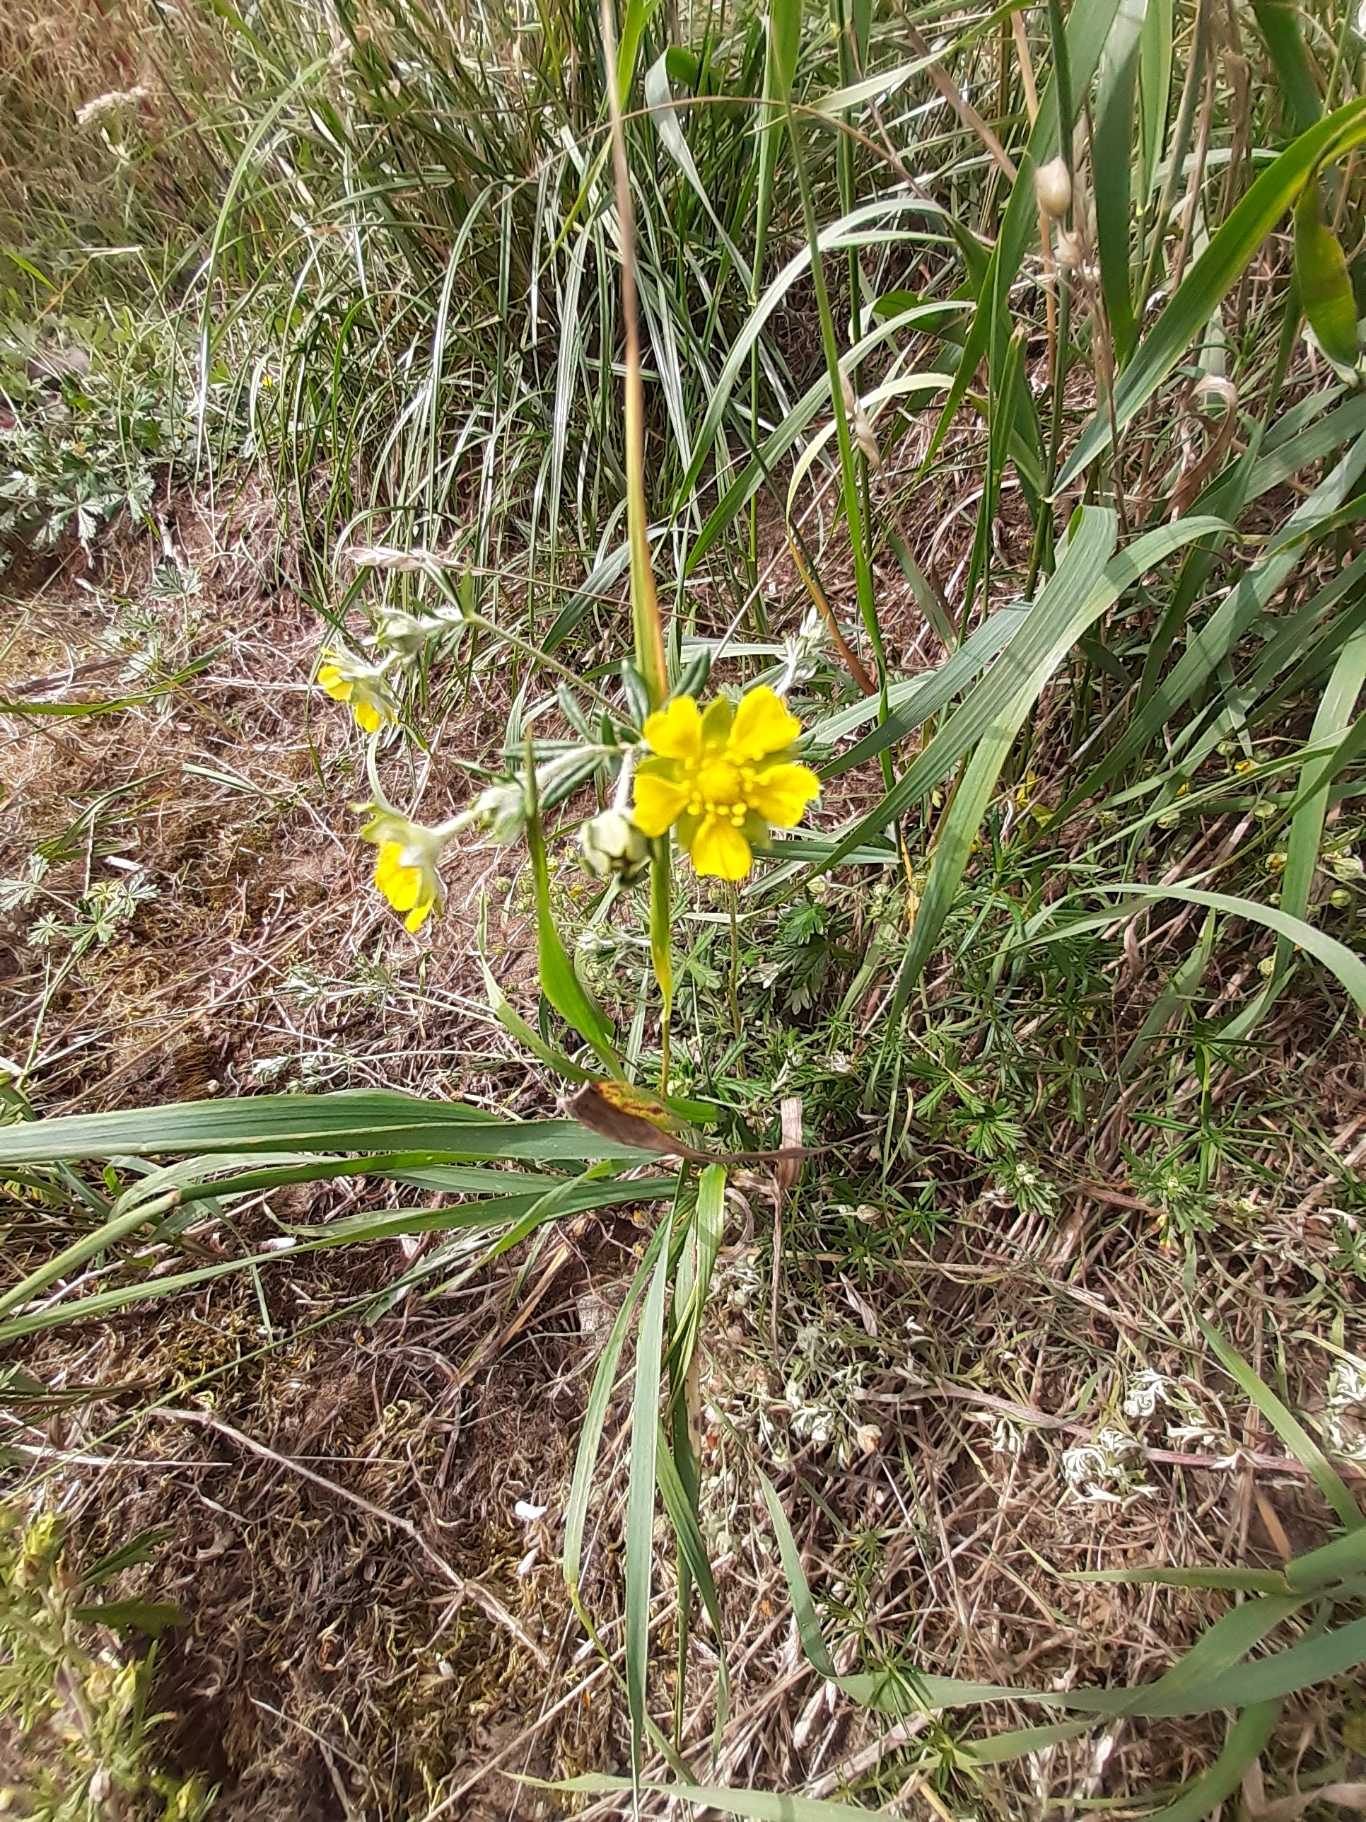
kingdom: Plantae
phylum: Tracheophyta
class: Magnoliopsida
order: Rosales
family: Rosaceae
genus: Potentilla
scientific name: Potentilla argentea
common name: Sølv-potentil
